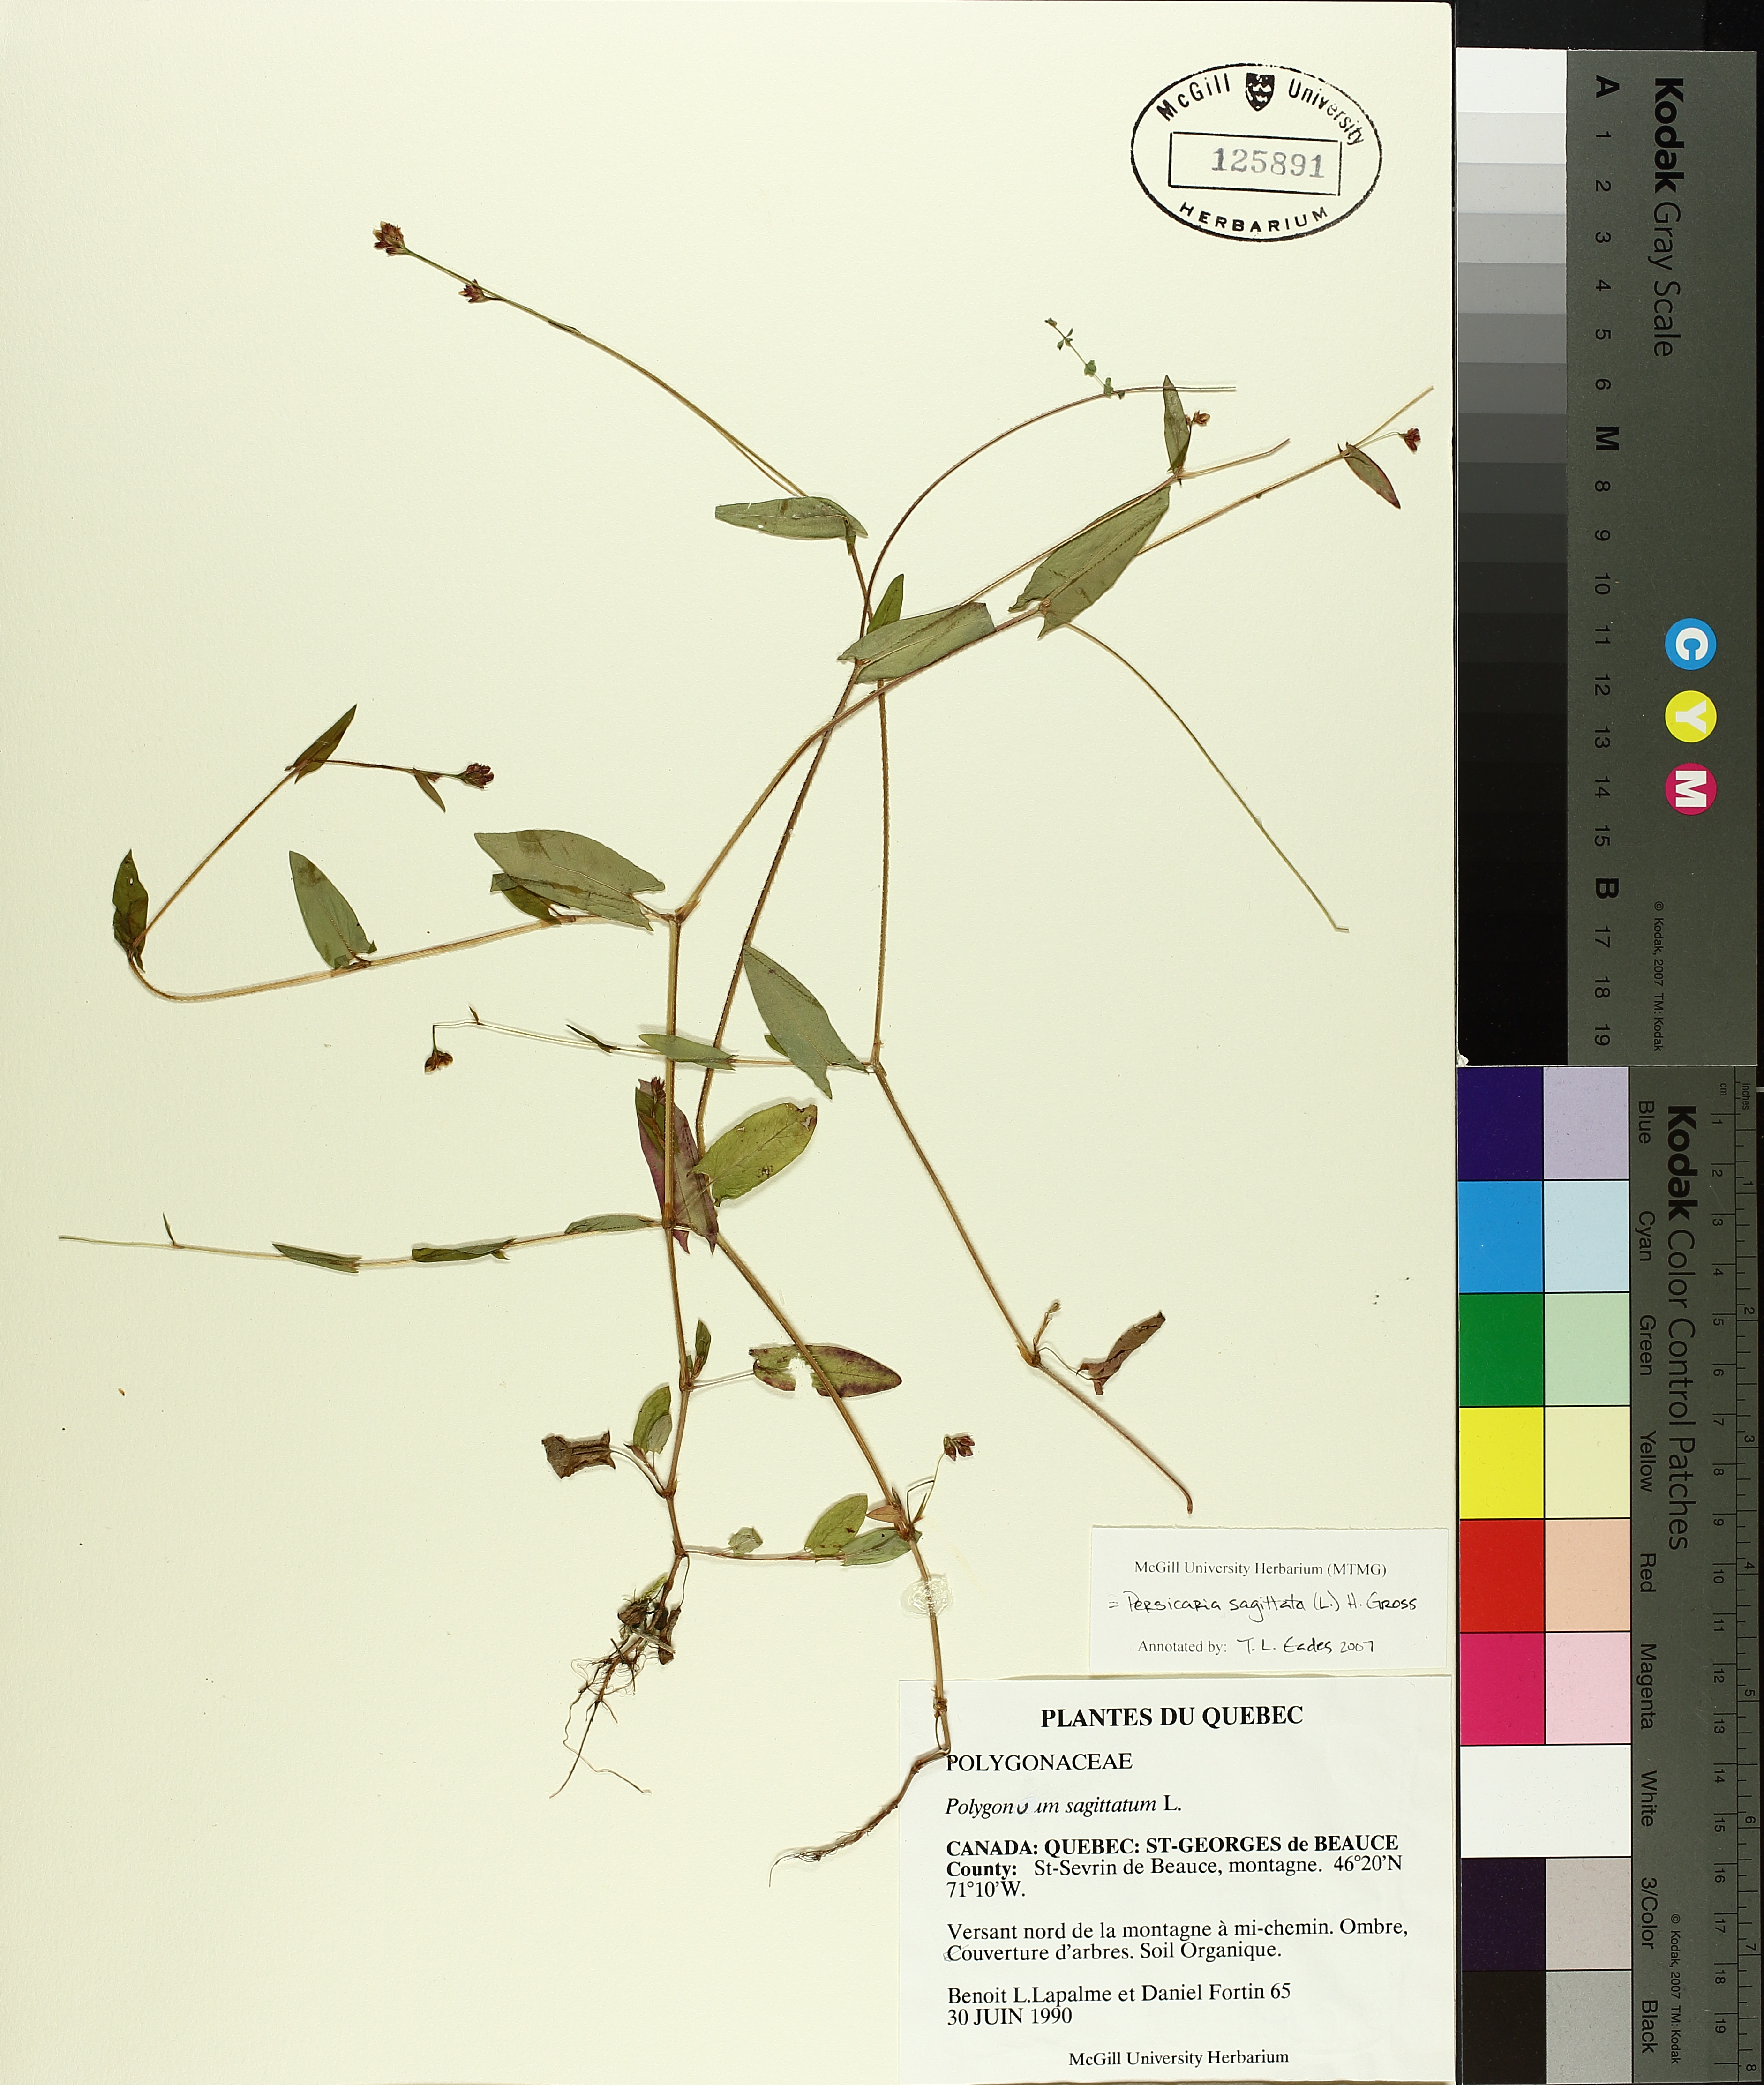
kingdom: Plantae
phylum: Tracheophyta
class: Magnoliopsida
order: Caryophyllales
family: Polygonaceae
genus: Persicaria
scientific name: Persicaria sagittata
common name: American tearthumb
